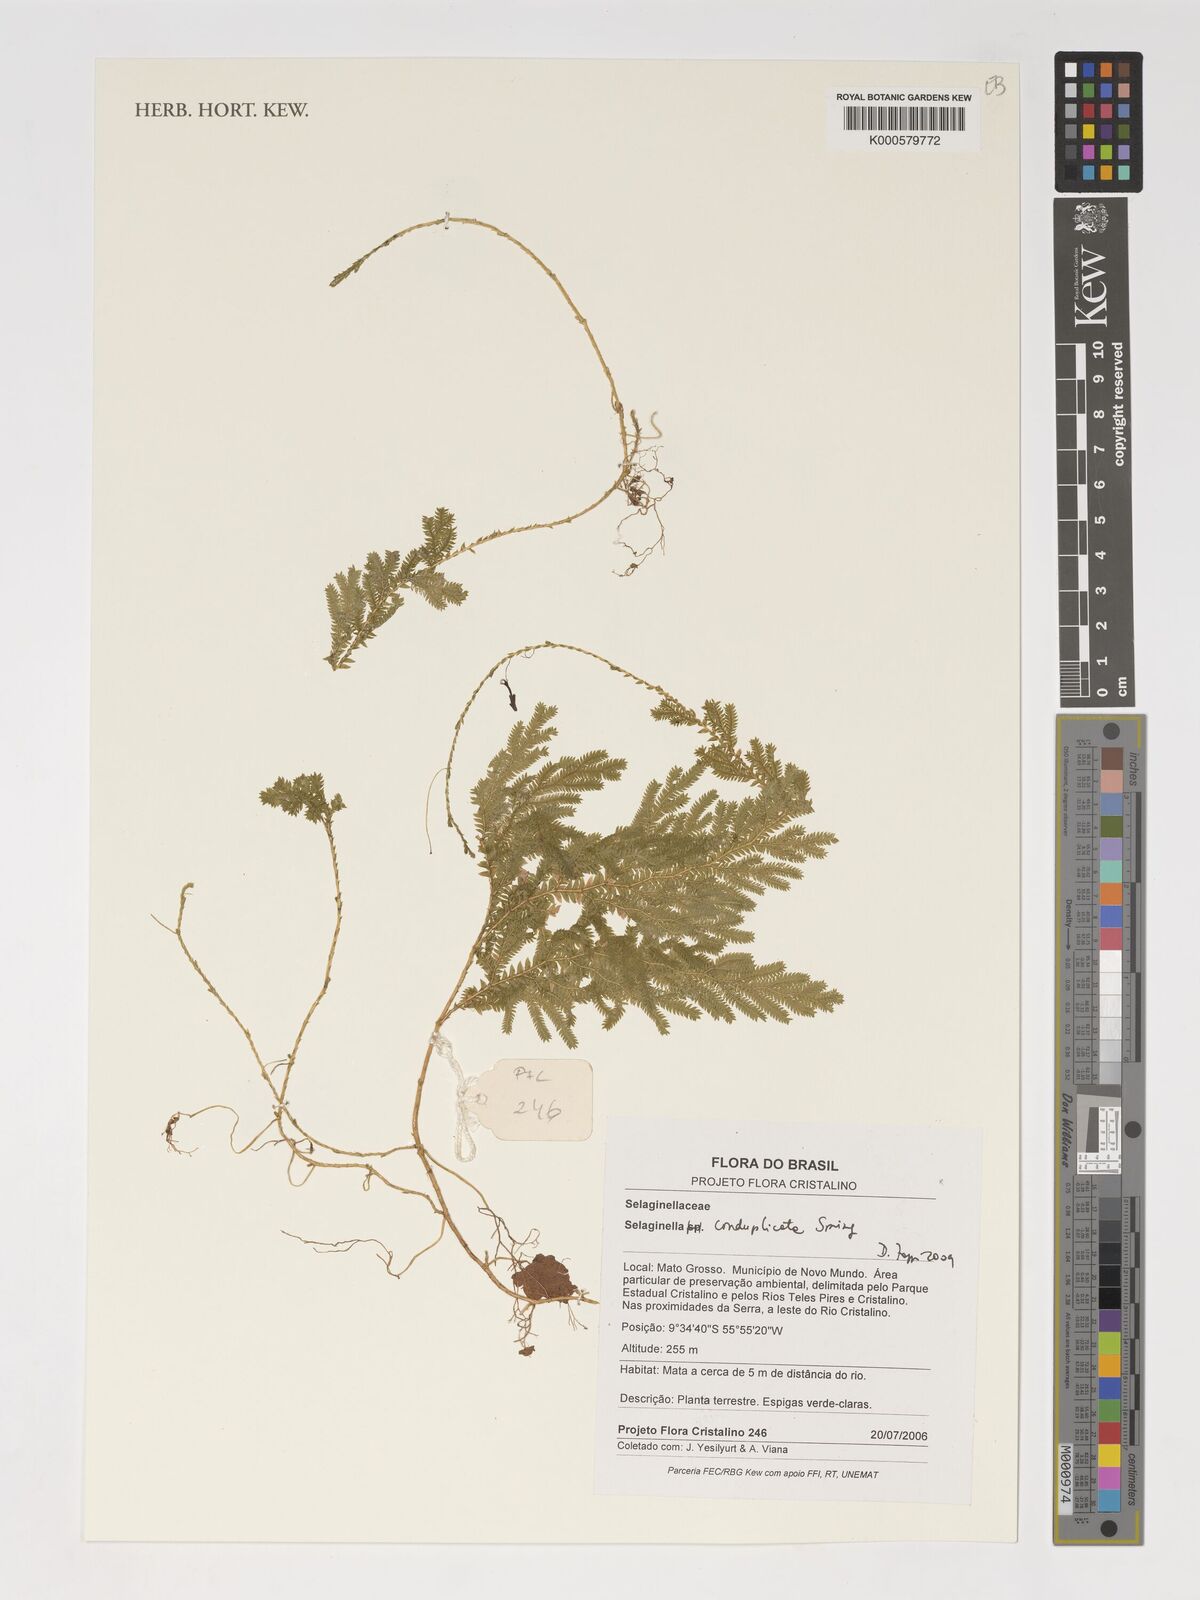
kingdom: Plantae
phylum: Tracheophyta
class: Lycopodiopsida
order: Selaginellales
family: Selaginellaceae
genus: Selaginella
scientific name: Selaginella conduplicata
